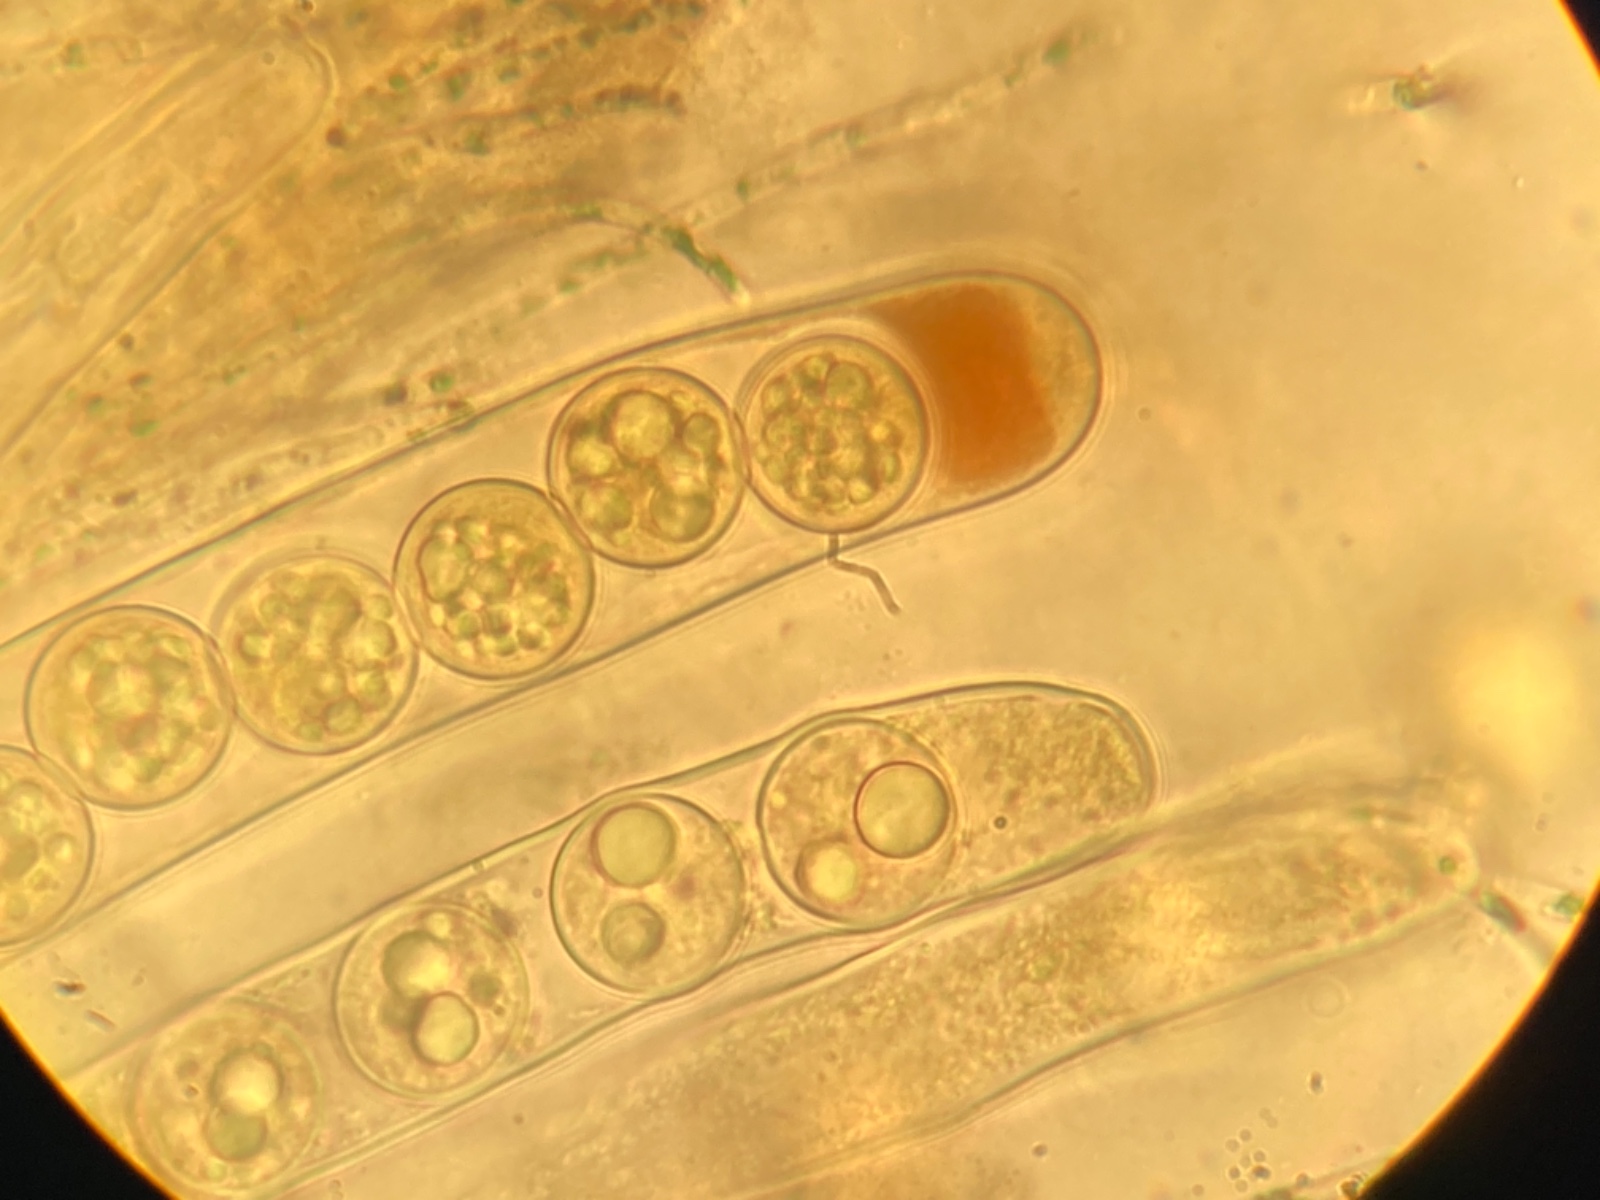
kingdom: Fungi
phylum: Ascomycota
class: Pezizomycetes
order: Pezizales
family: Pulvinulaceae
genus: Pulvinula
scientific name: Pulvinula carbonaria
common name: kul-pudebæger
